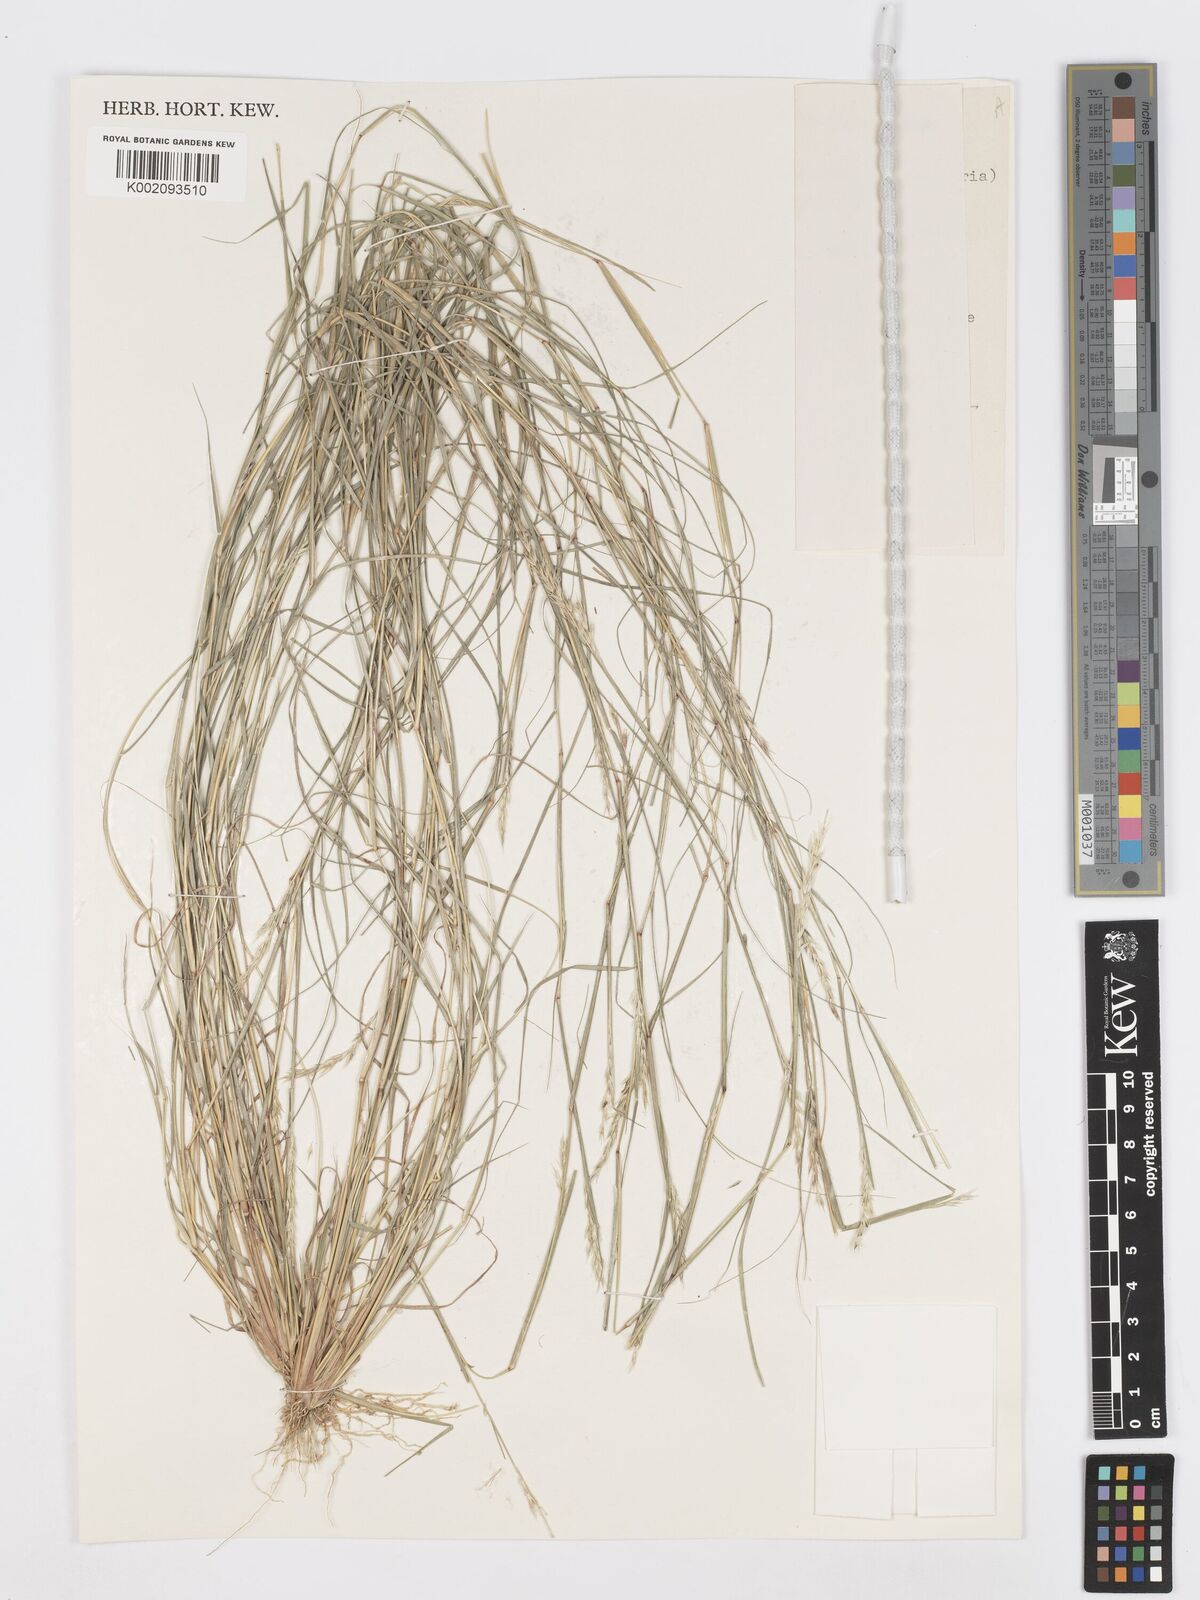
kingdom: Plantae
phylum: Tracheophyta
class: Liliopsida
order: Poales
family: Poaceae
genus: Sporobolus
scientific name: Sporobolus clandestinus
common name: Hidden dropseed
